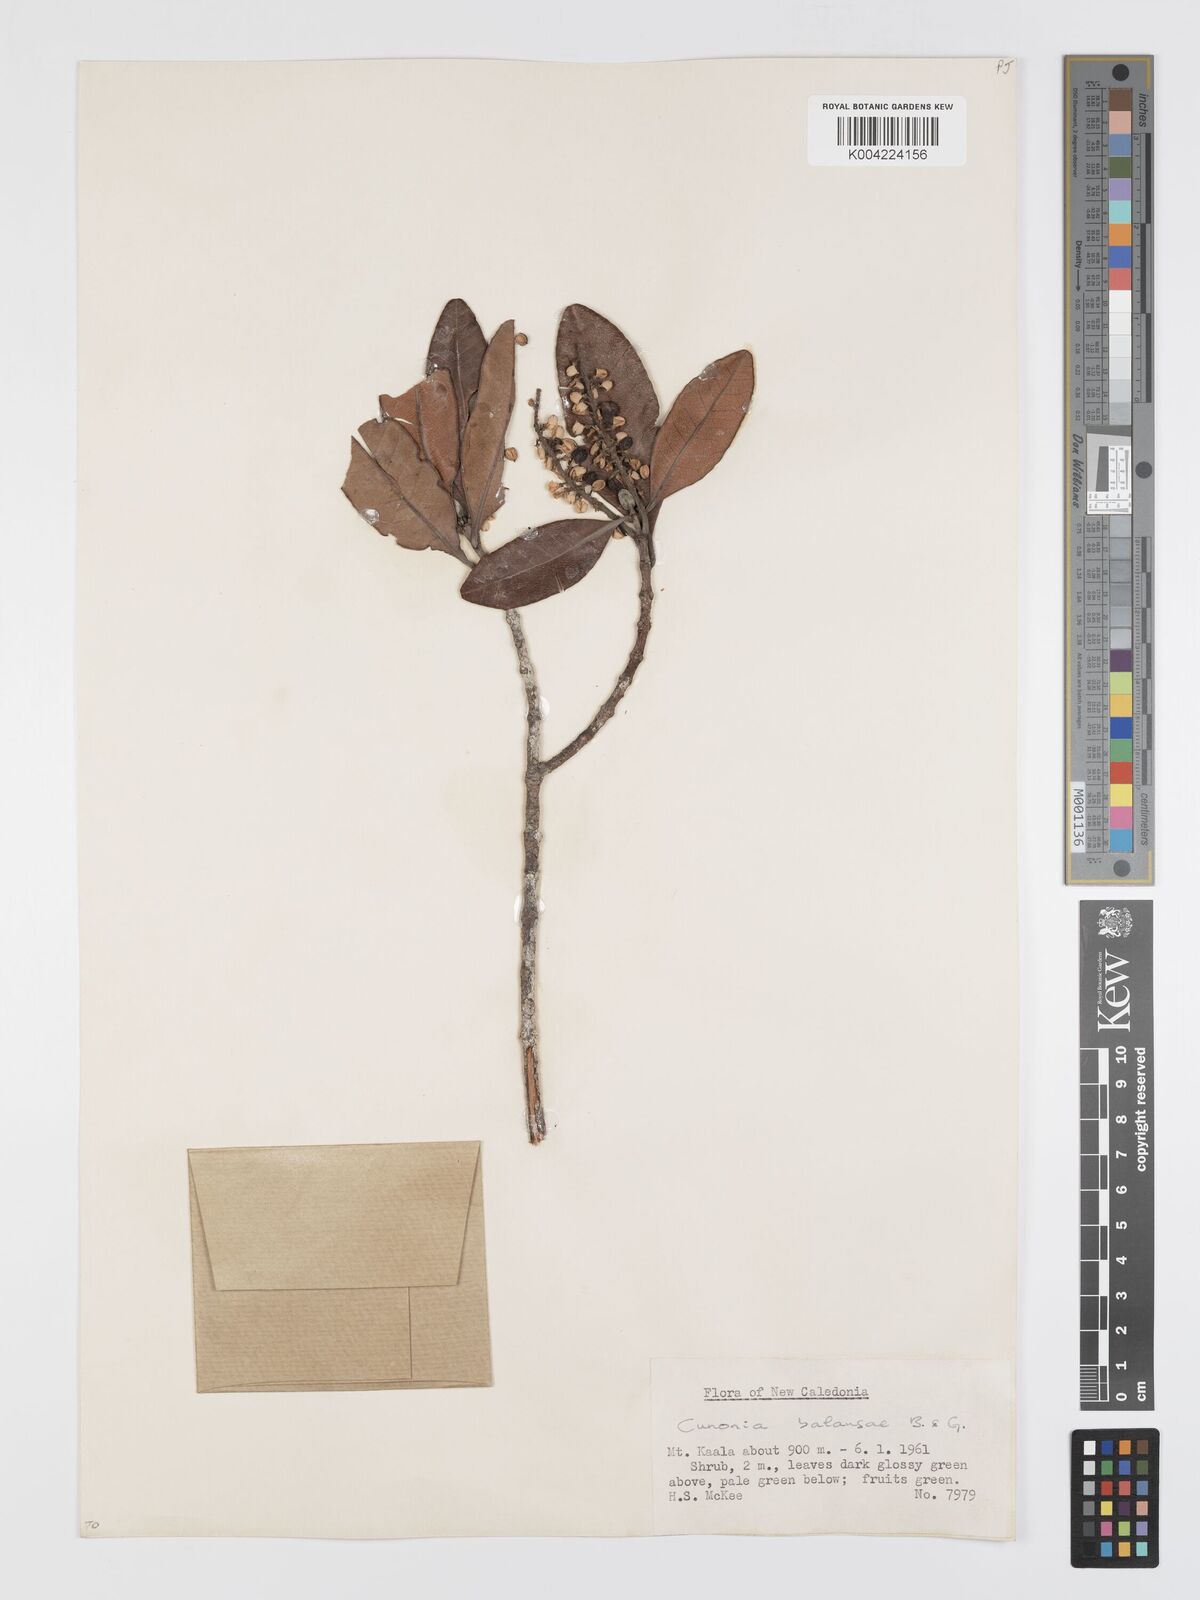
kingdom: Plantae
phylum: Tracheophyta
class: Magnoliopsida
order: Oxalidales
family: Cunoniaceae
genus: Cunonia
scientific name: Cunonia balansae
